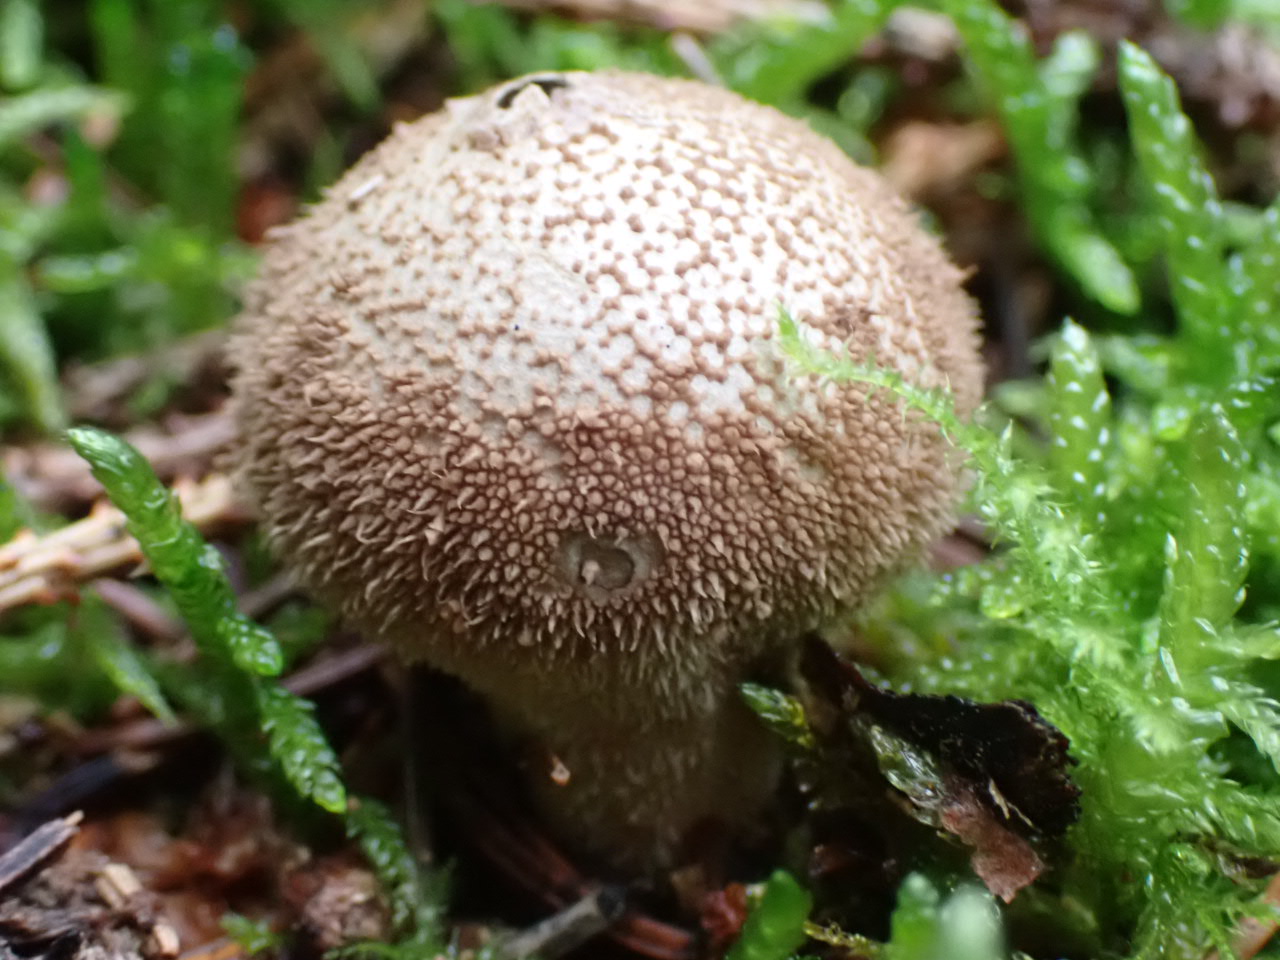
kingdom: Fungi
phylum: Basidiomycota
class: Agaricomycetes
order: Agaricales
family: Lycoperdaceae
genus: Lycoperdon
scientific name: Lycoperdon nigrescens
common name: sortagtig støvbold
